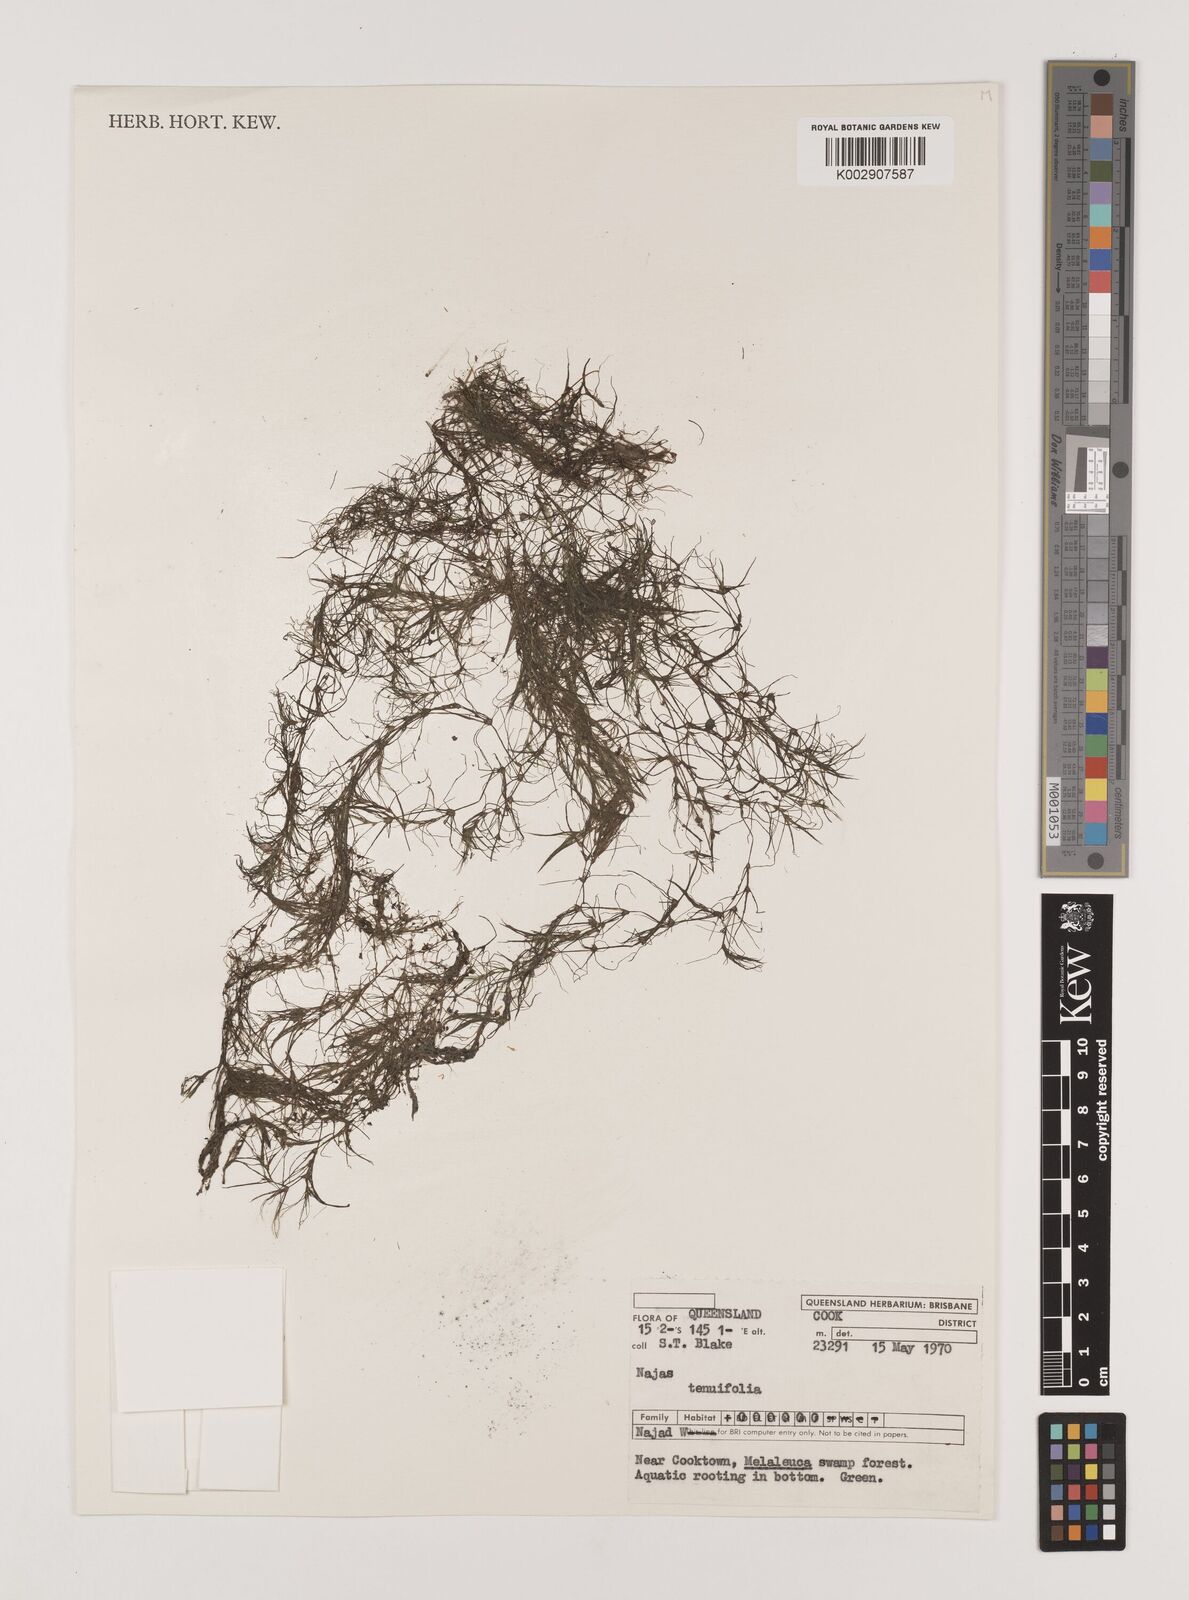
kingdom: Plantae
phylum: Tracheophyta
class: Liliopsida
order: Alismatales
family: Hydrocharitaceae
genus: Najas
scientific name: Najas tenuifolia
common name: Thin-leaved naiad
